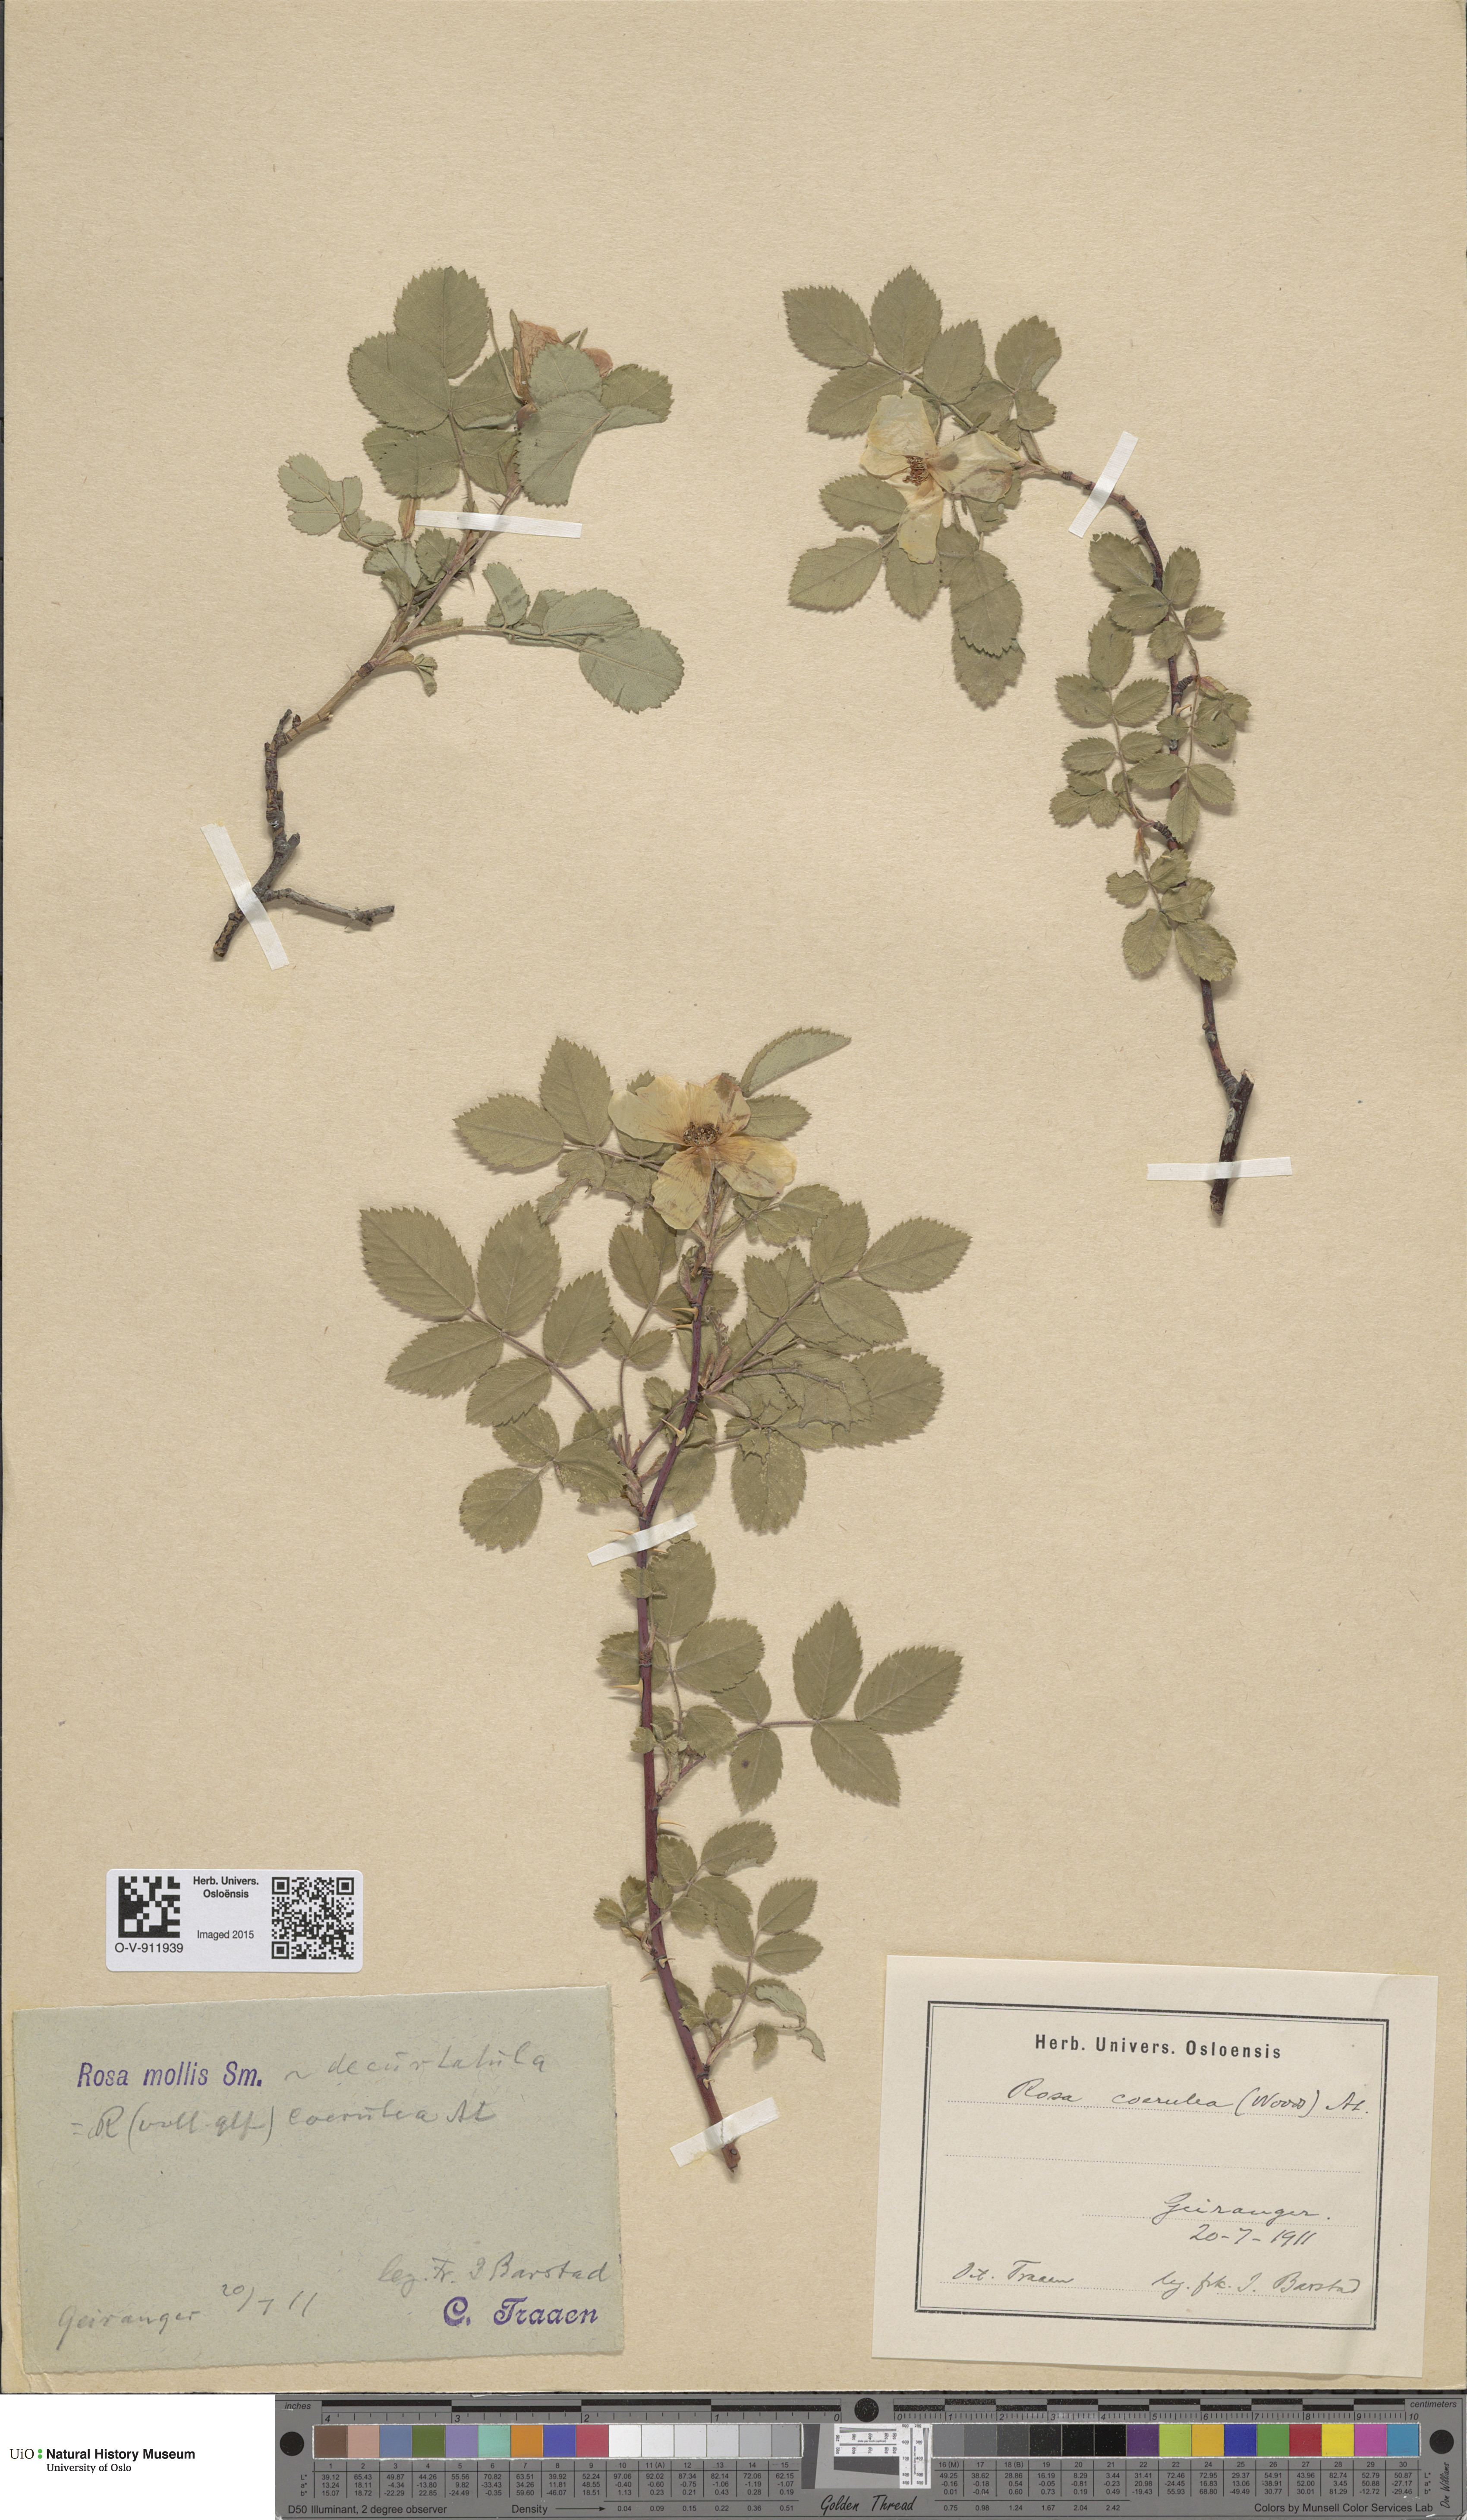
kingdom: Plantae
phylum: Tracheophyta
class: Magnoliopsida
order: Rosales
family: Rosaceae
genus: Rosa
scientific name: Rosa mollis
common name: Rose
